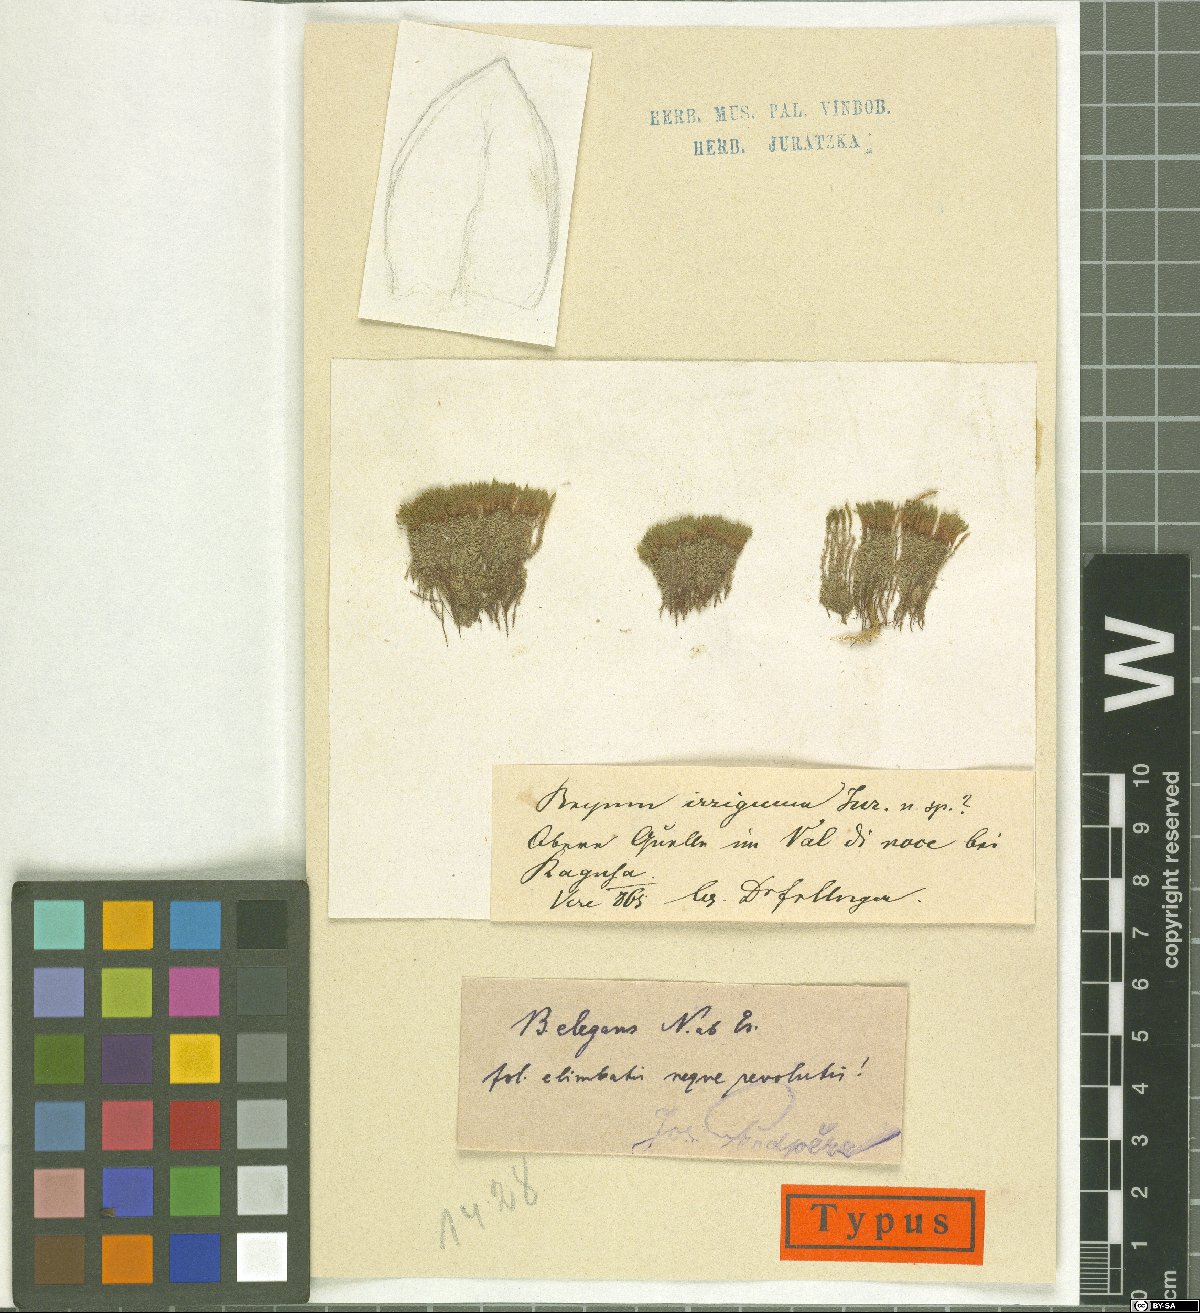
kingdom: Plantae
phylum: Bryophyta
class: Bryopsida
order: Bryales
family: Bryaceae
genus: Bryum
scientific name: Bryum
